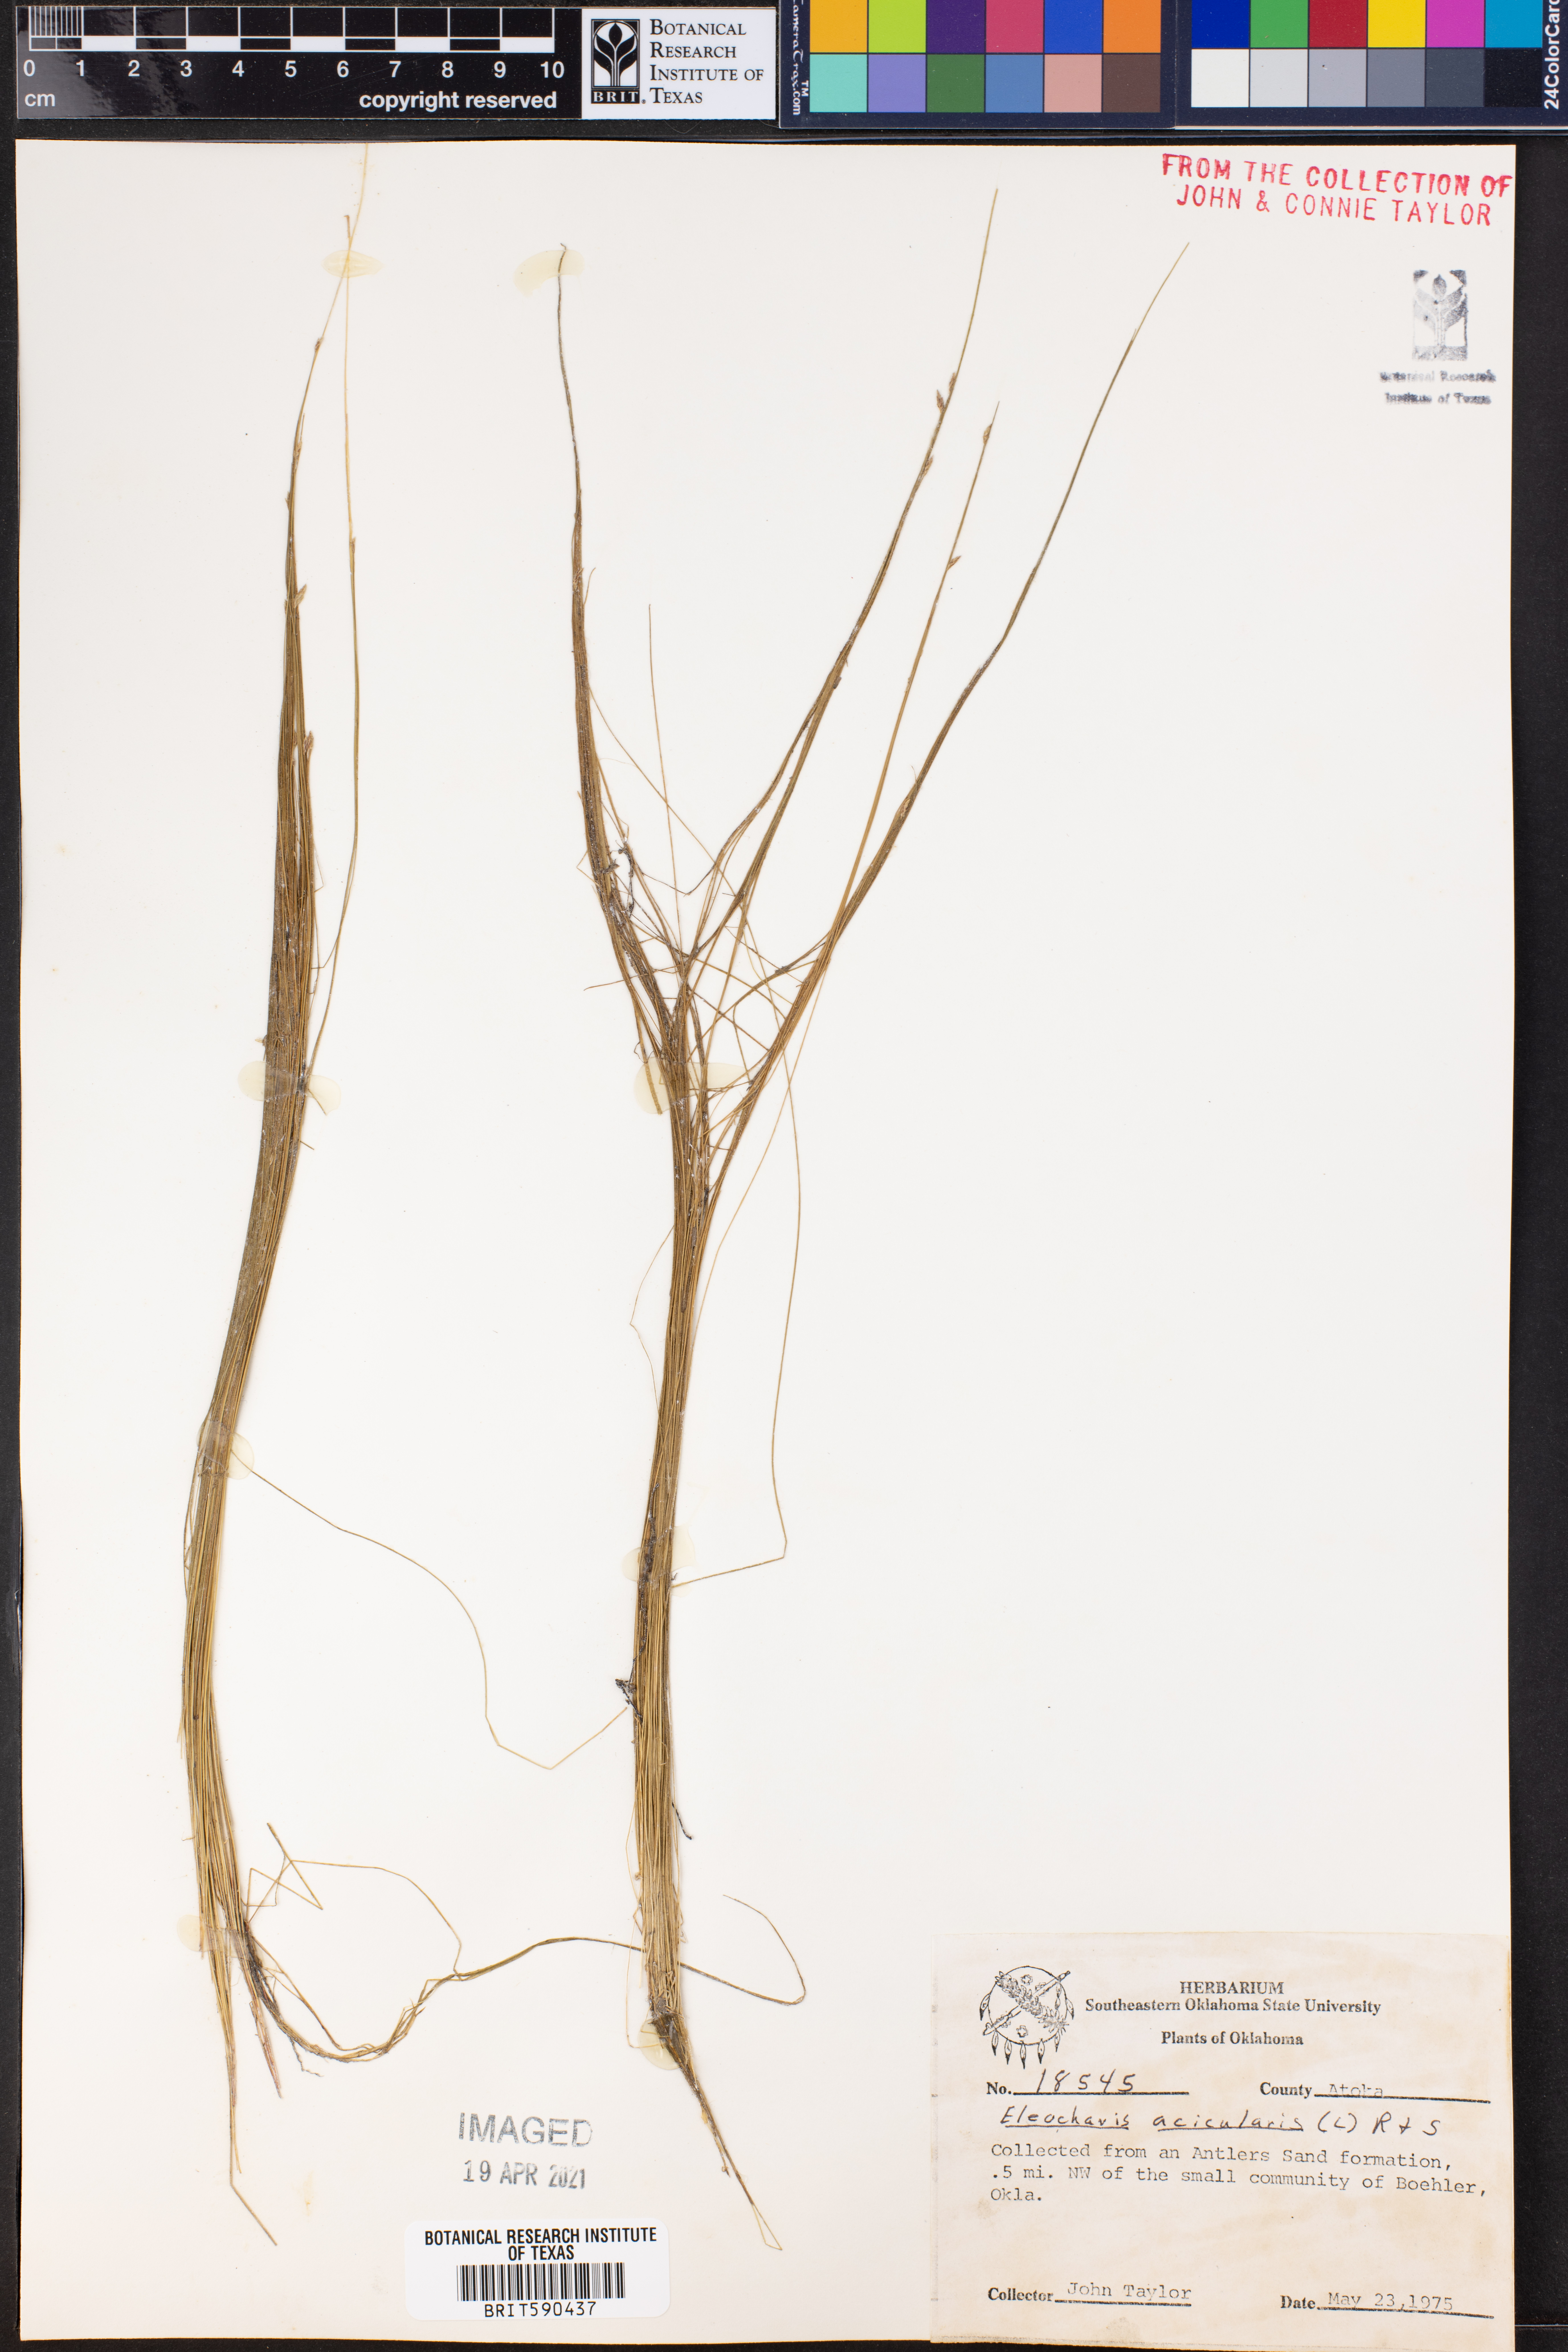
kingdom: Plantae
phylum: Tracheophyta
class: Liliopsida
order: Poales
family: Cyperaceae
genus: Eleocharis
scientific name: Eleocharis acicularis
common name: Needle spike-rush
